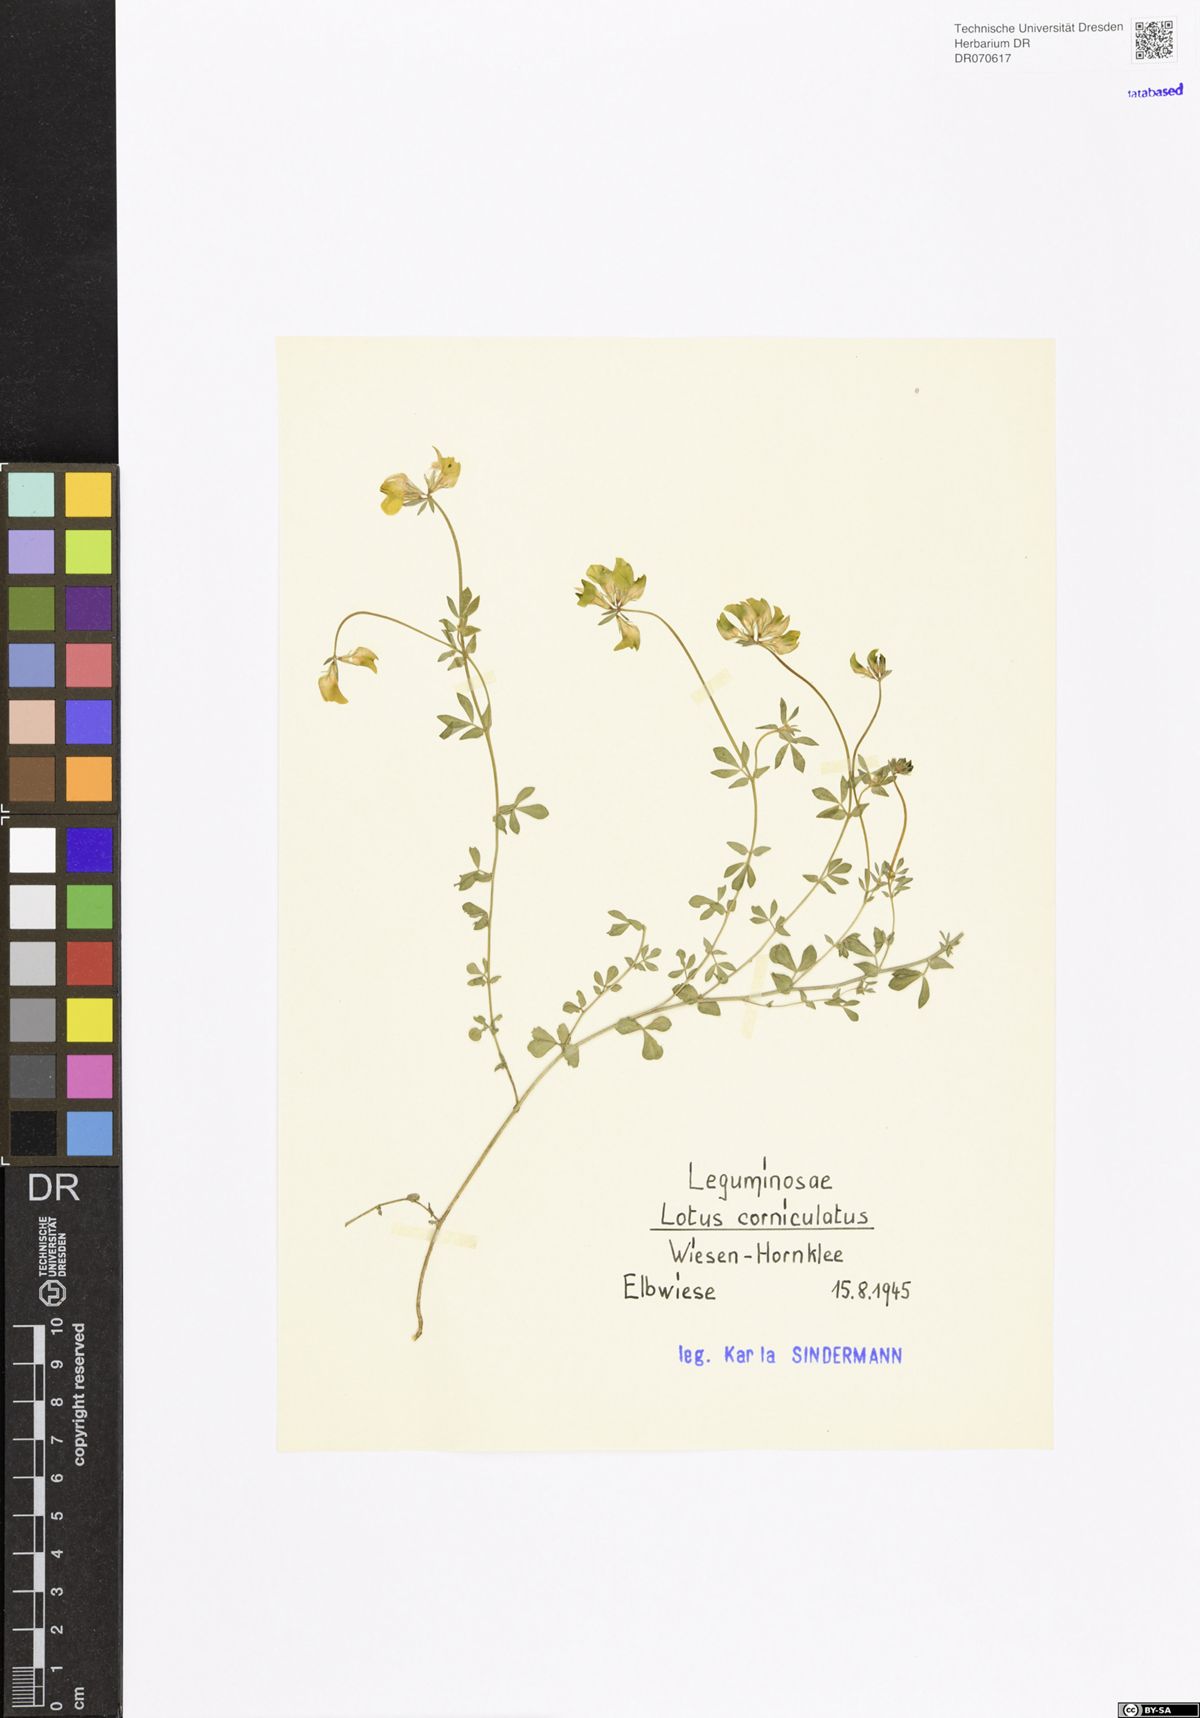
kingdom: Plantae
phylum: Tracheophyta
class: Magnoliopsida
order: Fabales
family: Fabaceae
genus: Lotus
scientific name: Lotus corniculatus
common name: Common bird's-foot-trefoil
